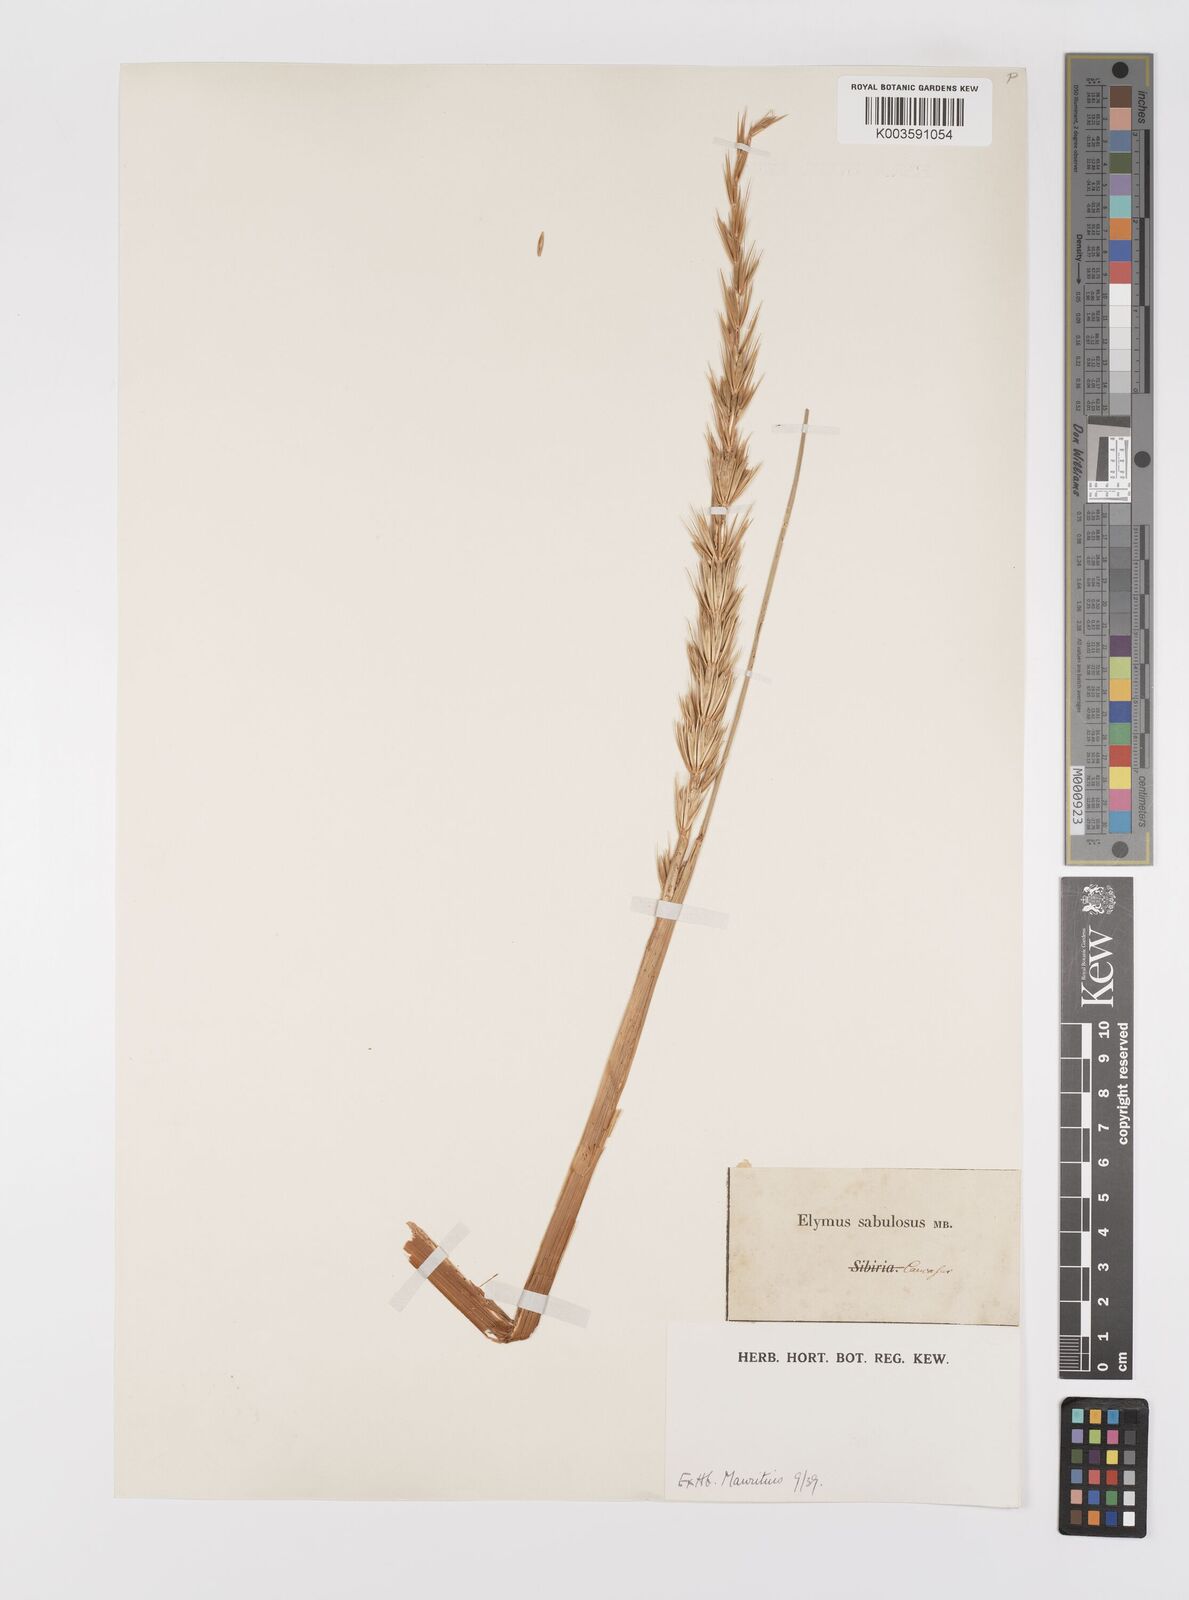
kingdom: Plantae
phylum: Tracheophyta
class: Liliopsida
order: Poales
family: Poaceae
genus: Leymus
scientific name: Leymus racemosus
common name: Mammoth wildrye
